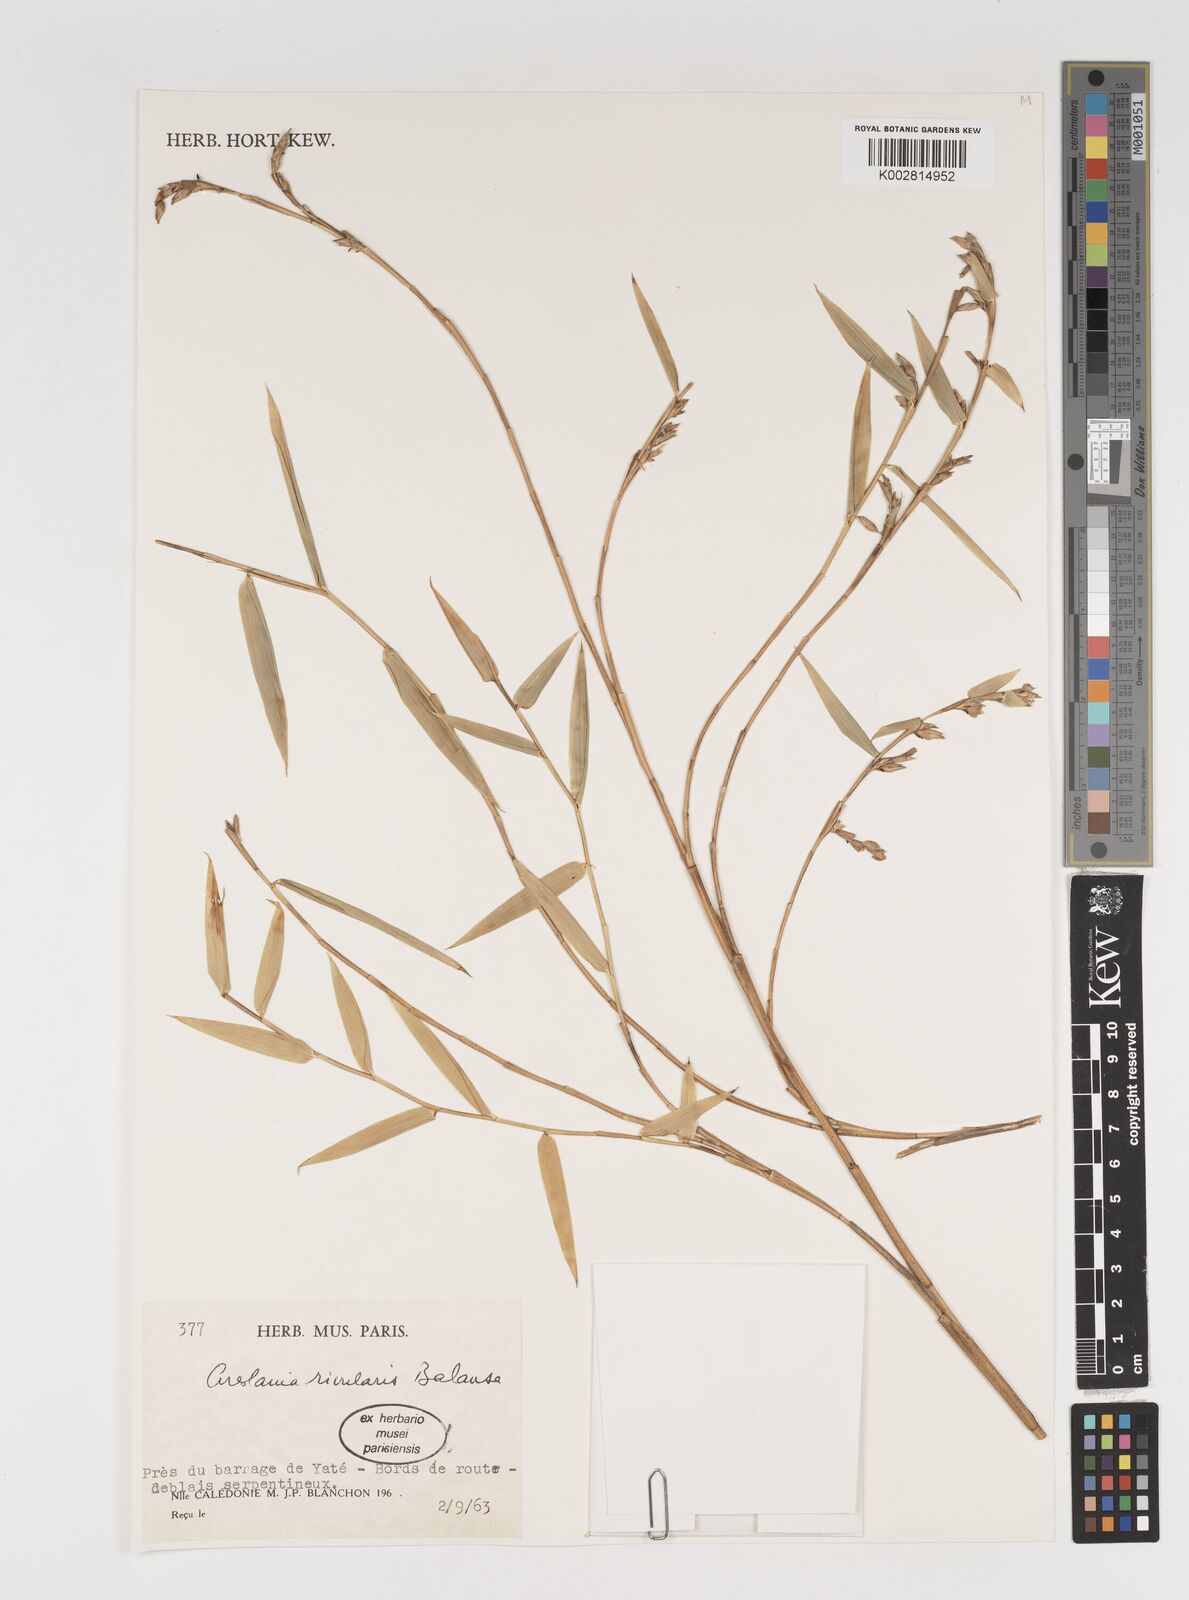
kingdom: Plantae
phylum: Tracheophyta
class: Liliopsida
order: Poales
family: Poaceae
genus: Greslania
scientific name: Greslania rivularis
